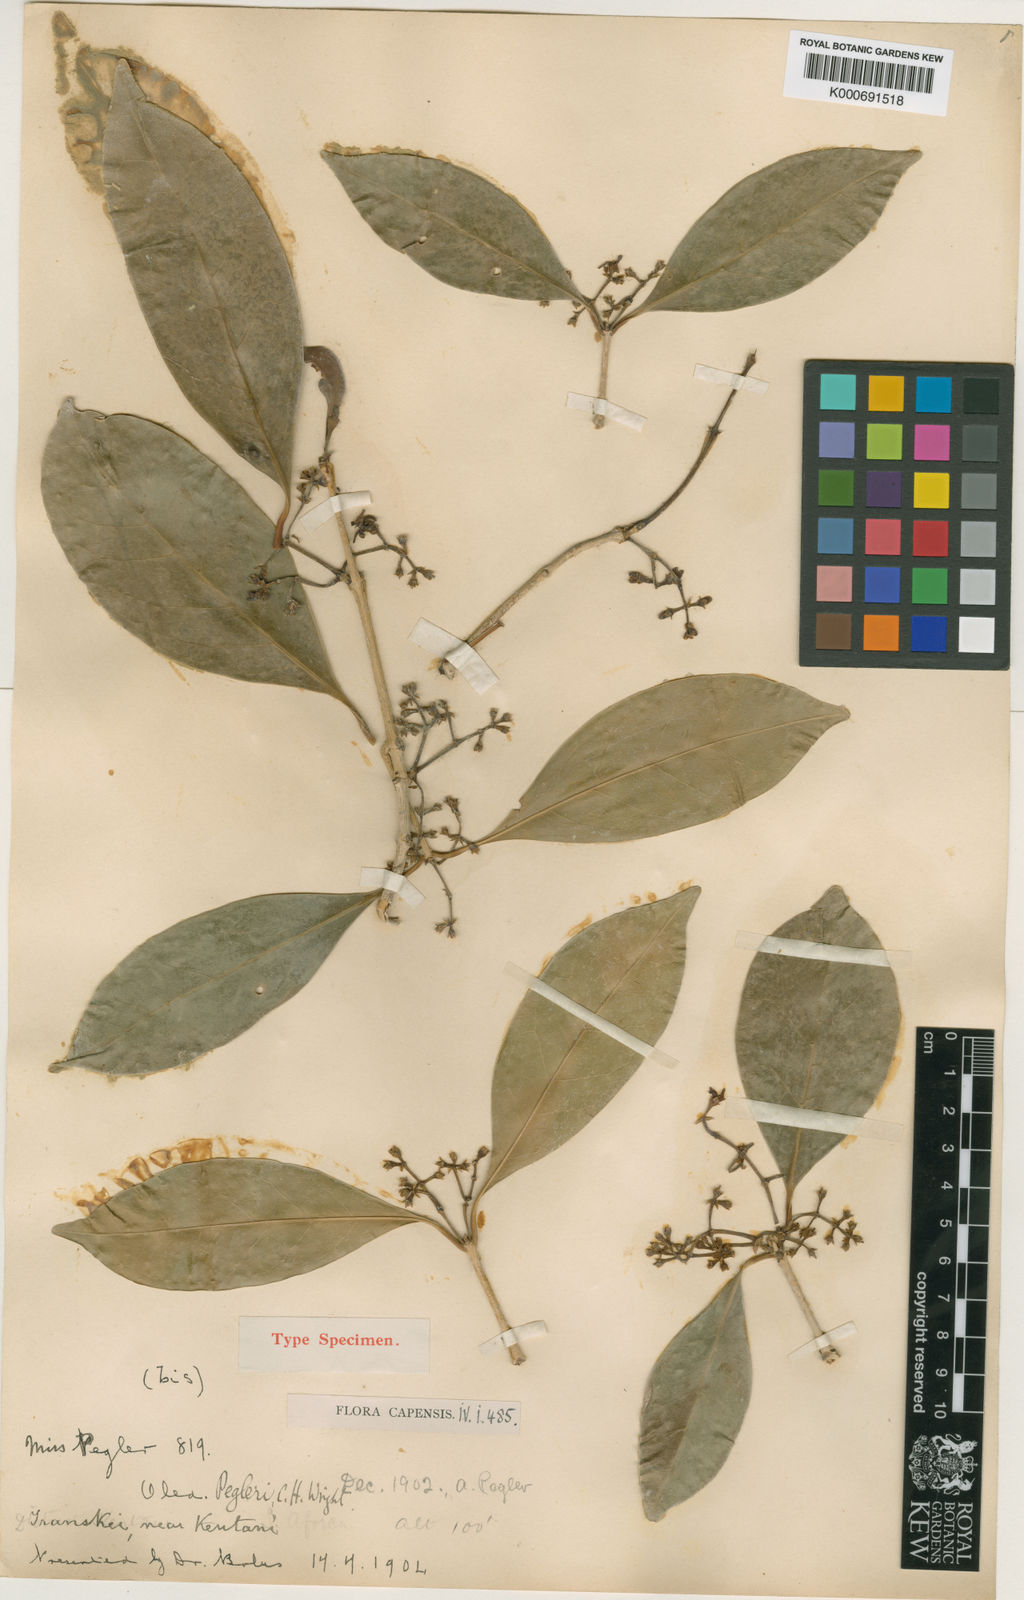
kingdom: Plantae
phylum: Tracheophyta
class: Magnoliopsida
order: Lamiales
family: Oleaceae
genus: Noronhia
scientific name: Noronhia peglerae
